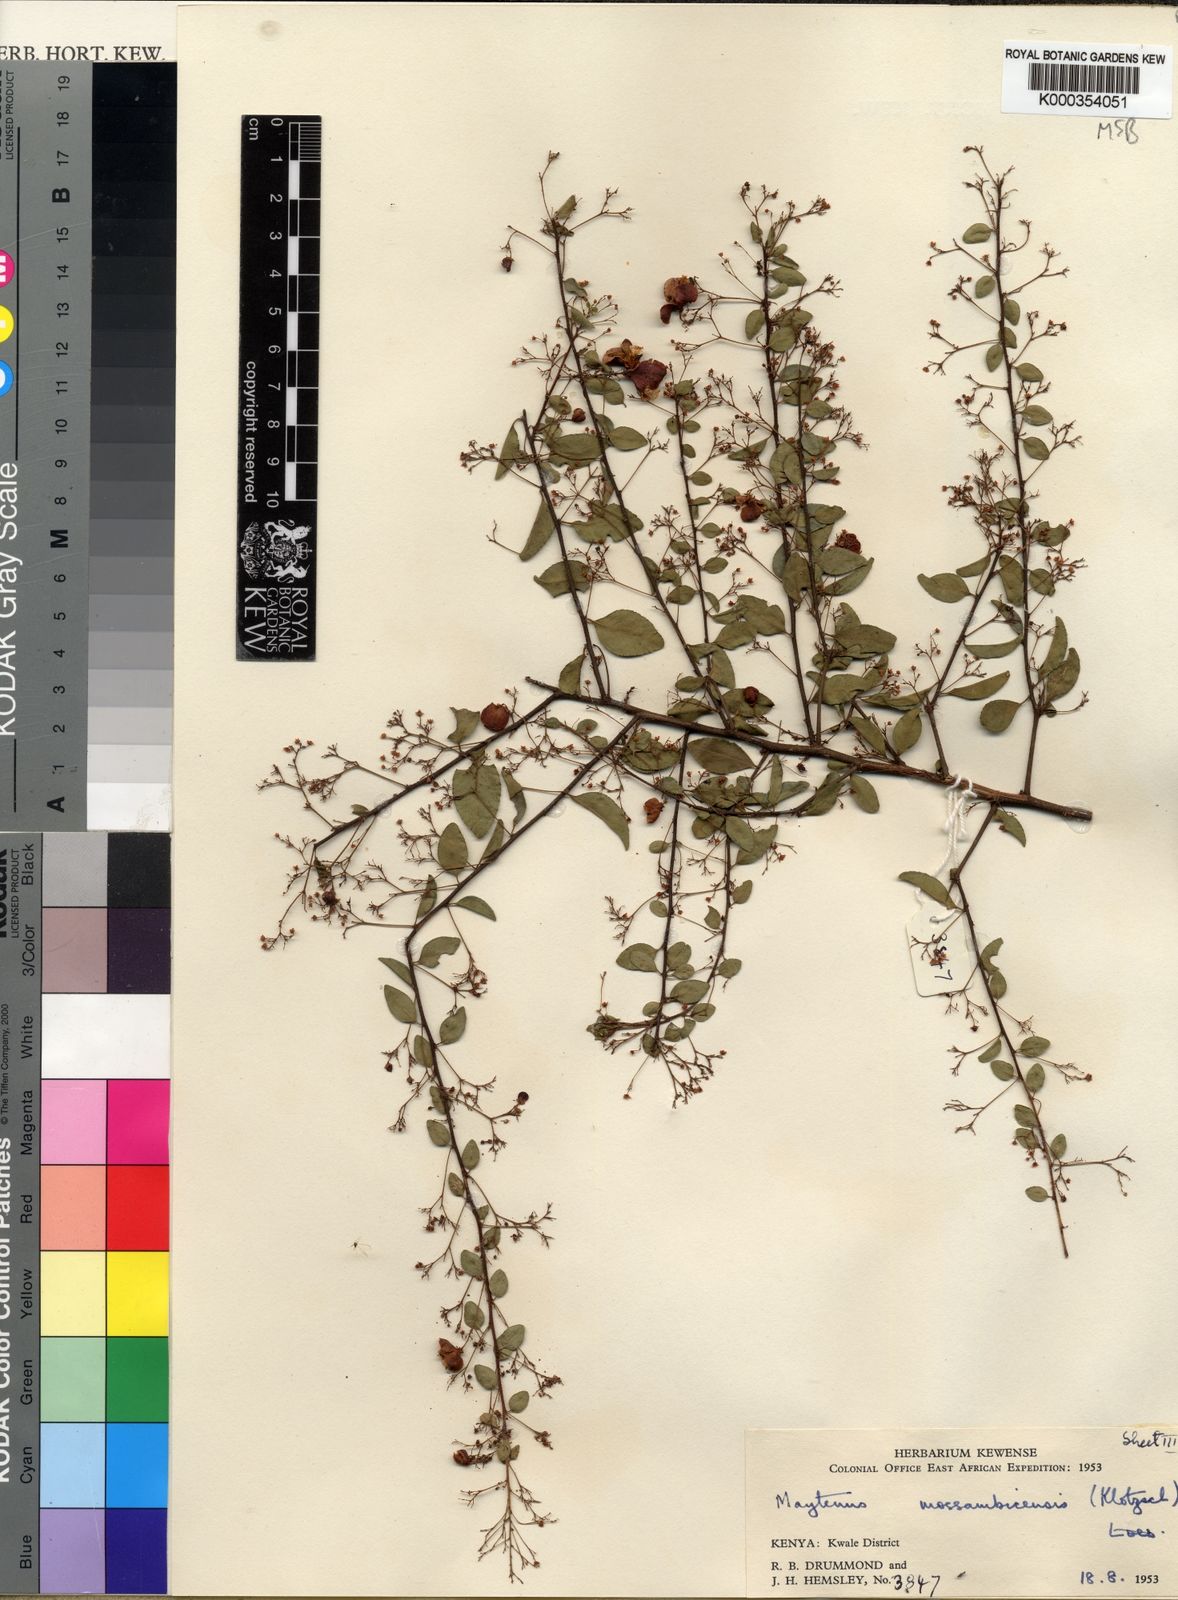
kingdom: Plantae
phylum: Tracheophyta
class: Magnoliopsida
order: Celastrales
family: Celastraceae
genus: Gymnosporia
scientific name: Gymnosporia mossambicensis
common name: Black forest spike-thorn
